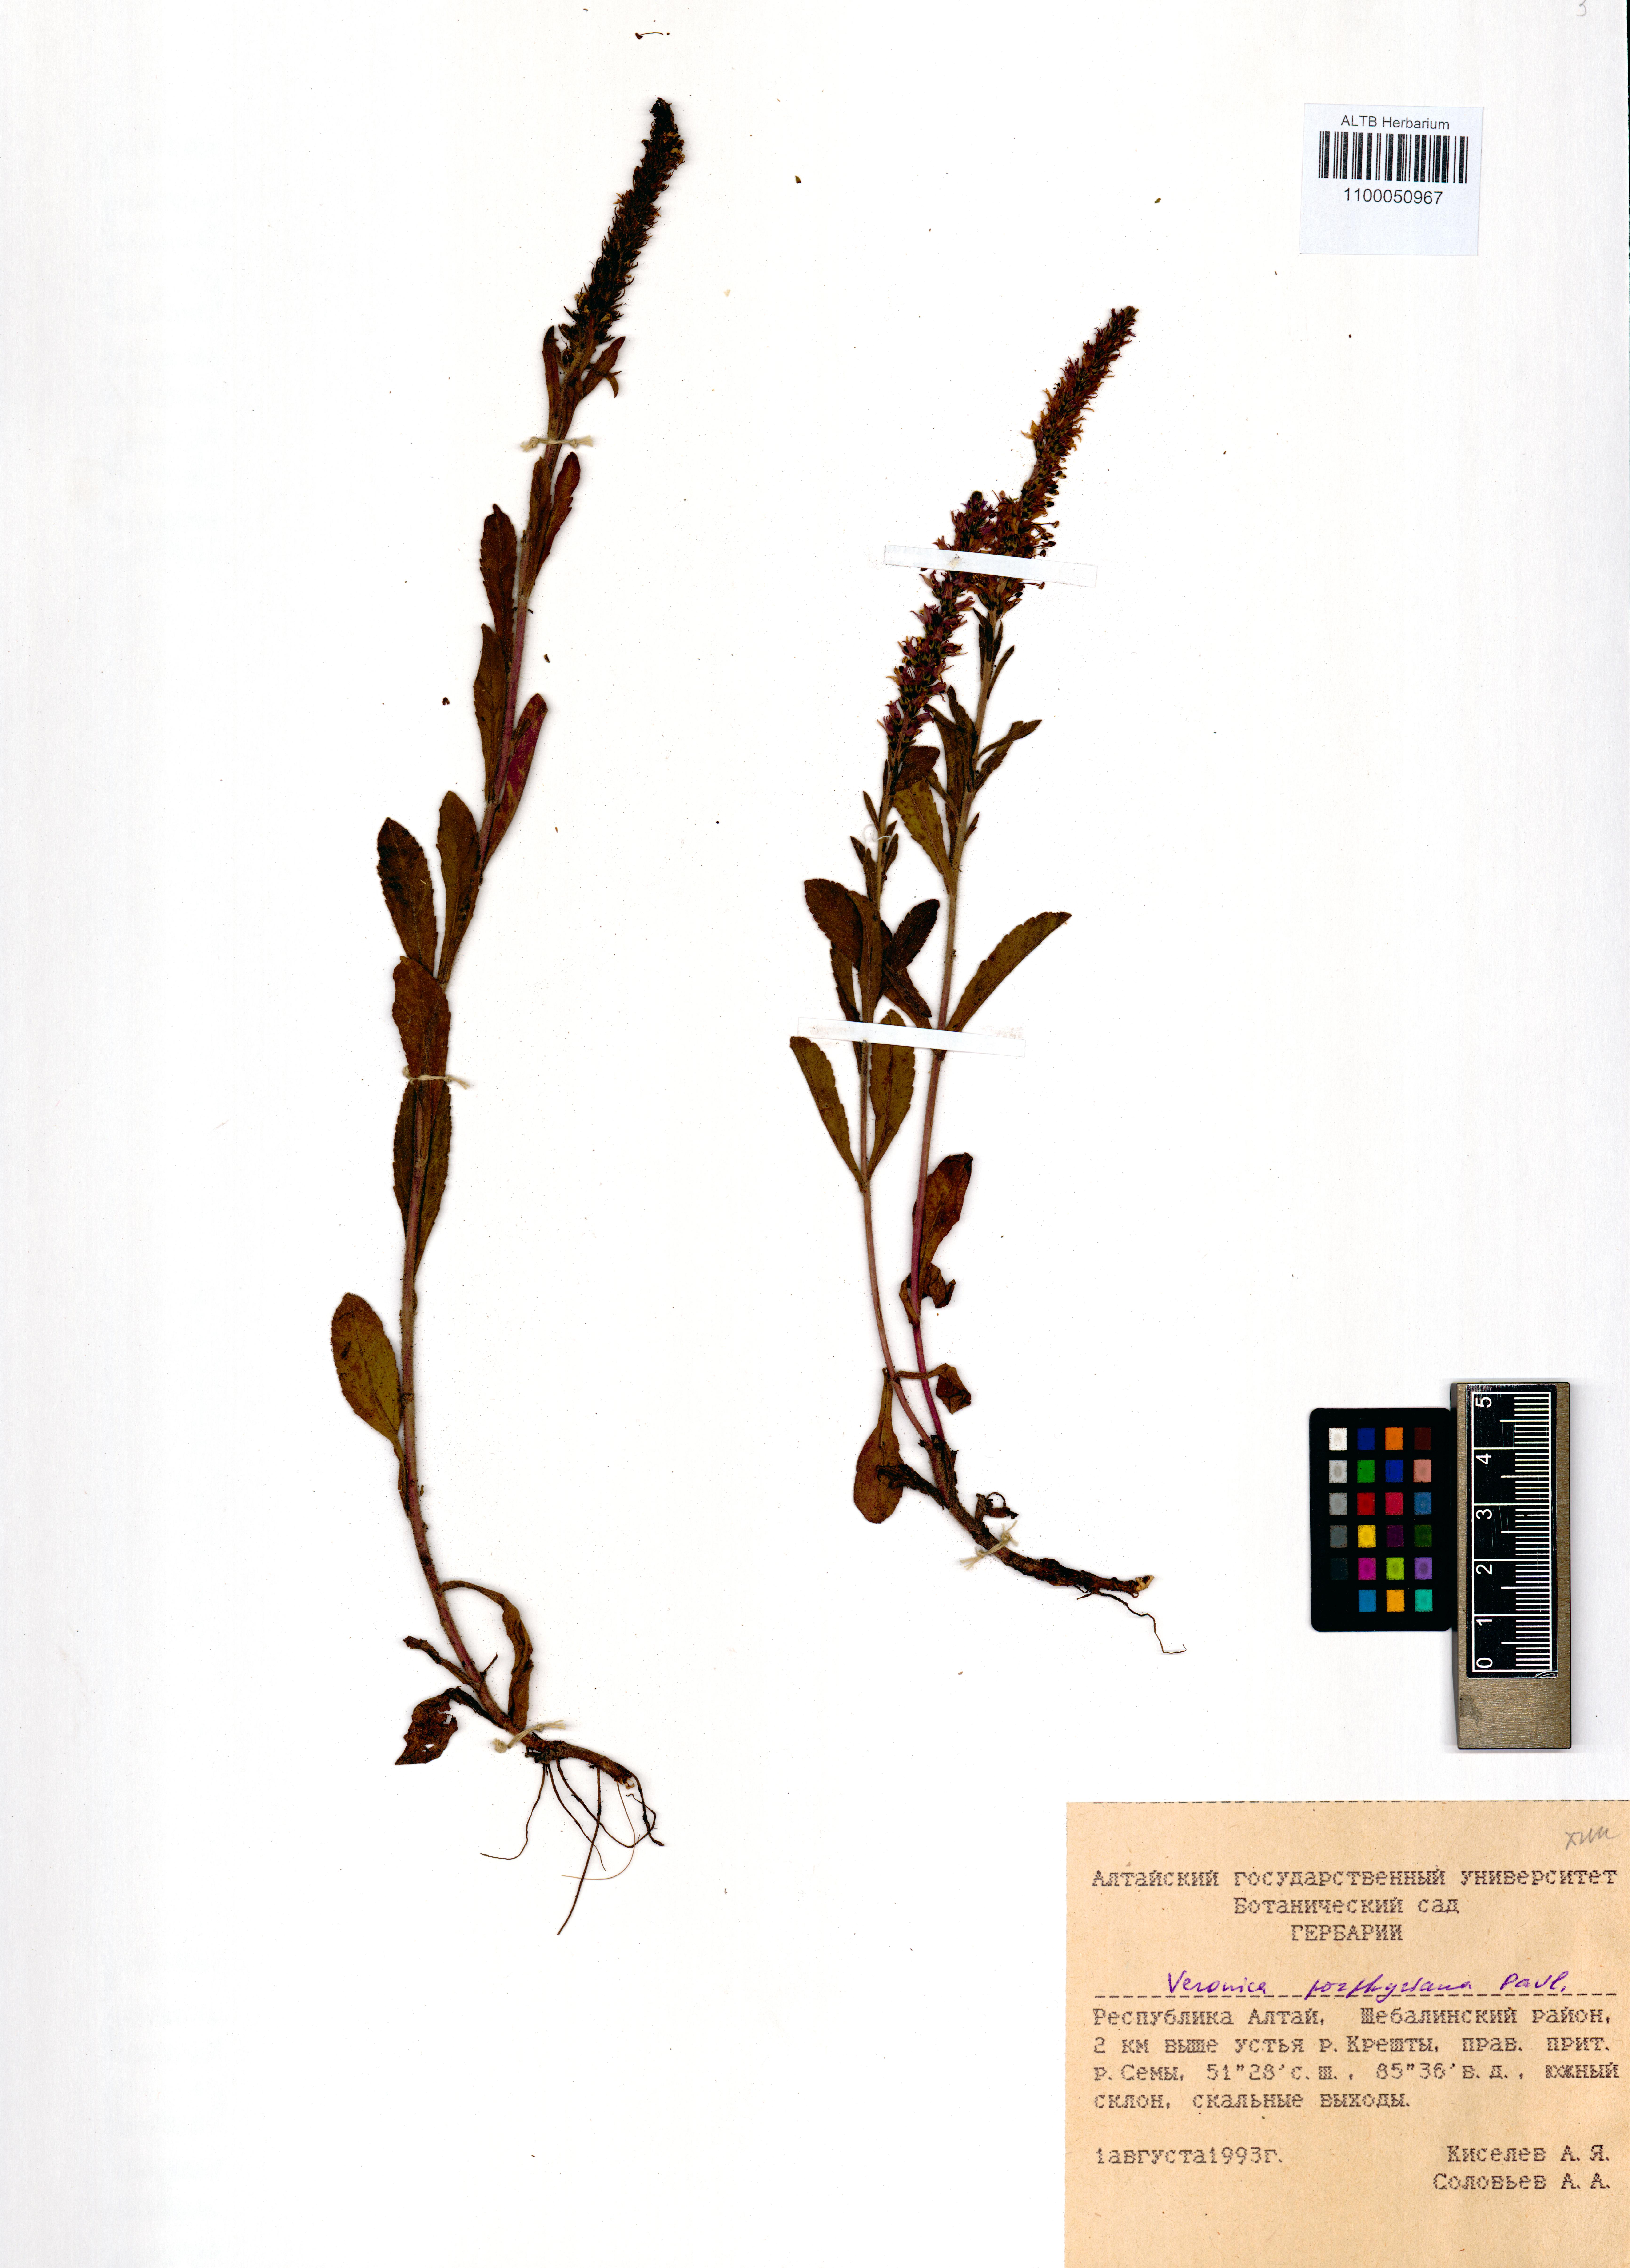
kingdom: Plantae
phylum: Tracheophyta
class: Magnoliopsida
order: Lamiales
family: Plantaginaceae
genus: Veronica
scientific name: Veronica porphyriana
